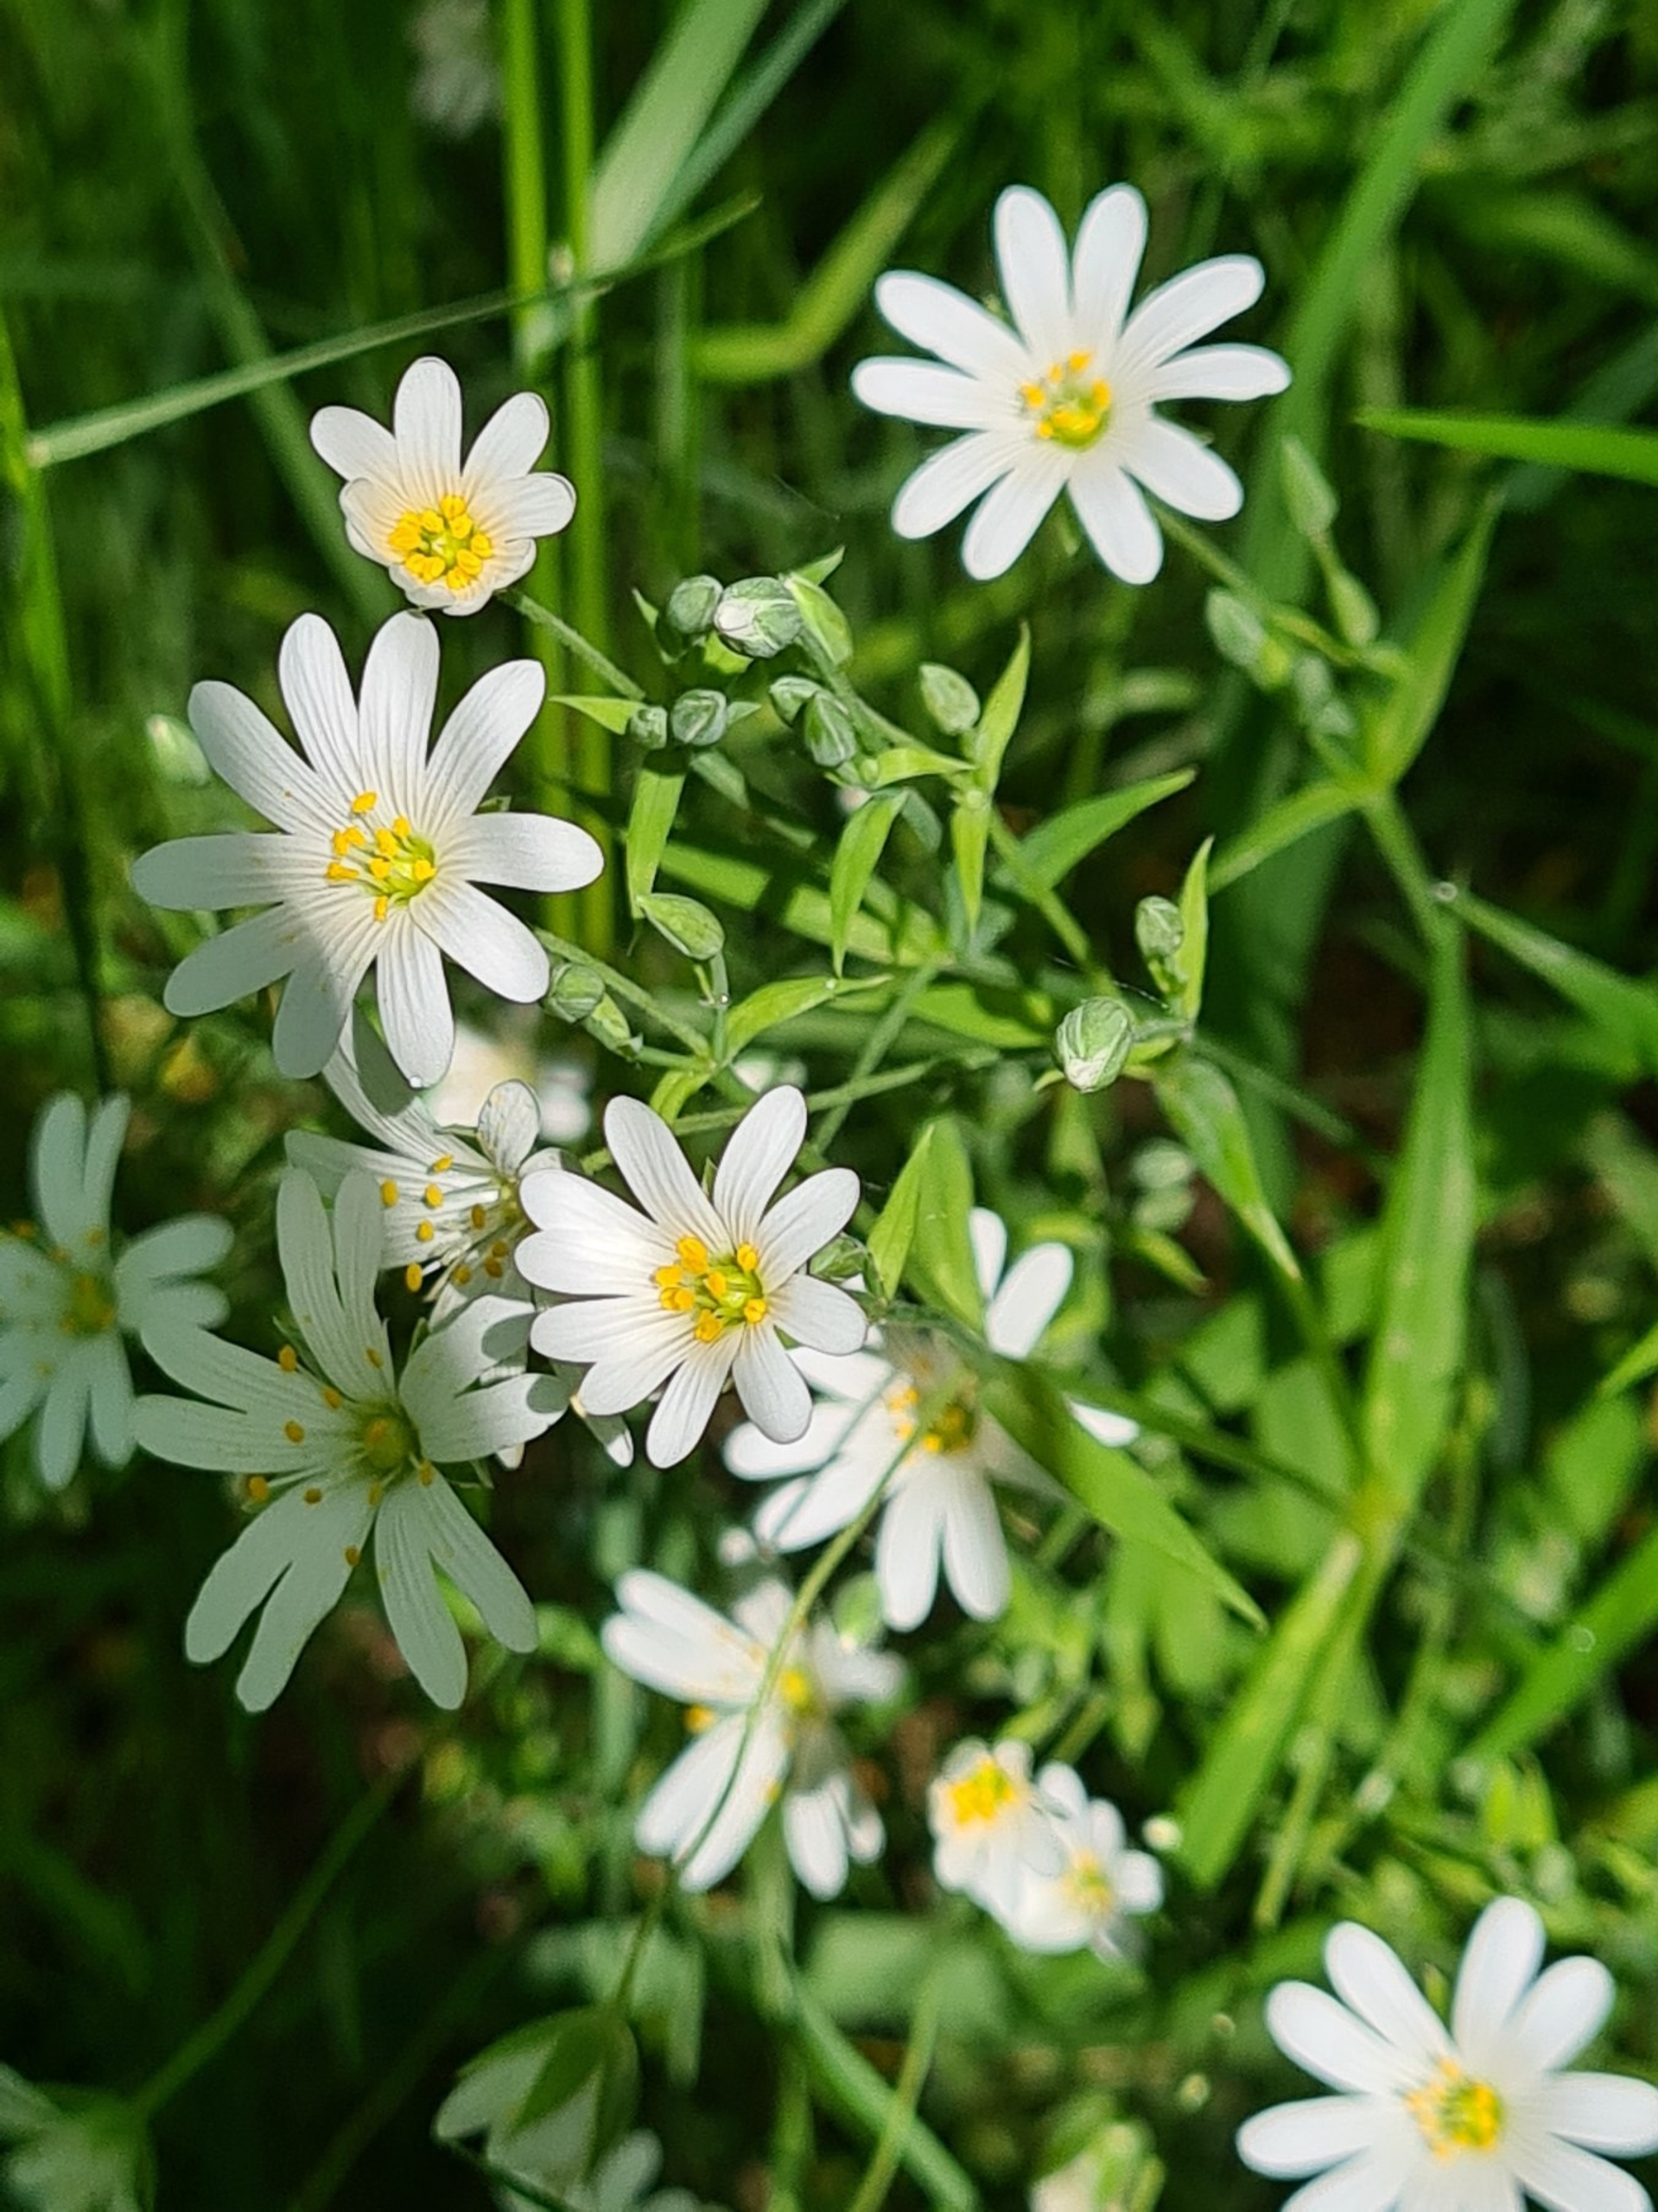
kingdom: Plantae
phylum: Tracheophyta
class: Magnoliopsida
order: Caryophyllales
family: Caryophyllaceae
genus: Rabelera
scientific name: Rabelera holostea
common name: Stor fladstjerne
